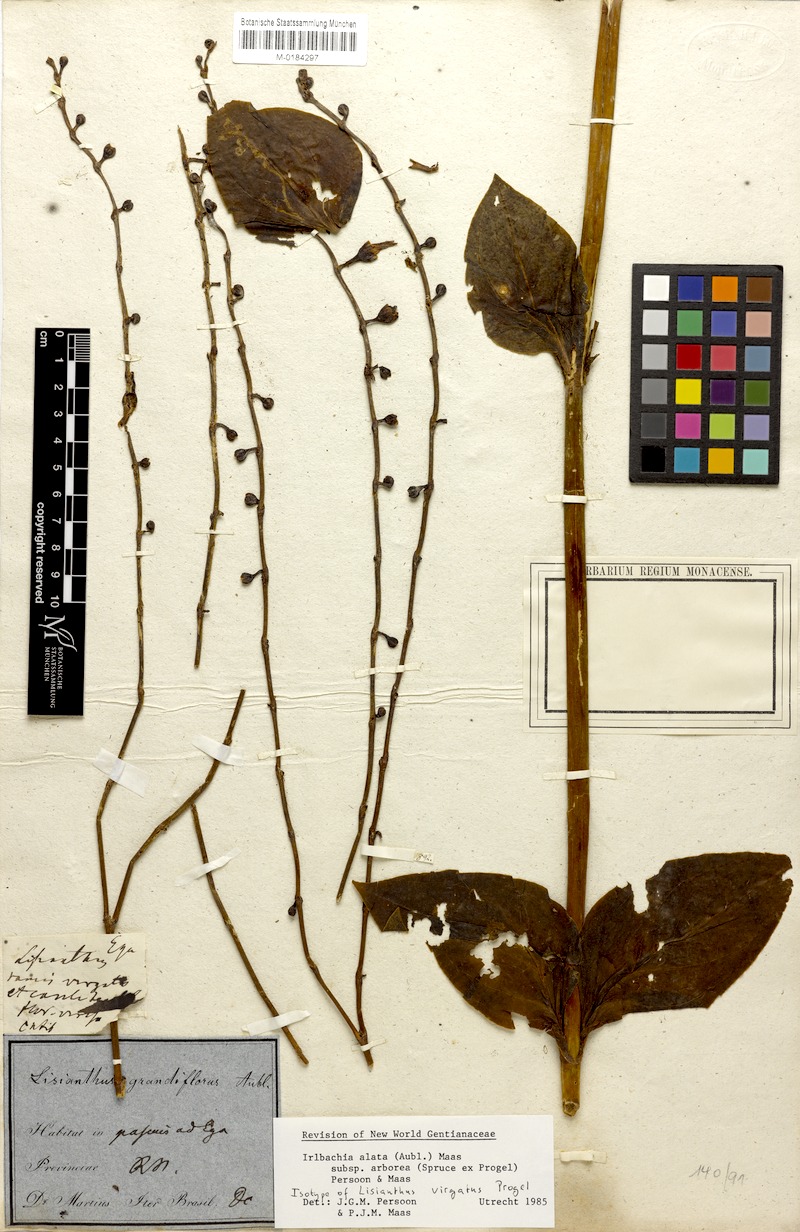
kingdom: Plantae
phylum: Tracheophyta
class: Magnoliopsida
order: Gentianales
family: Gentianaceae
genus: Adenolisianthus
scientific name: Adenolisianthus arboreus
